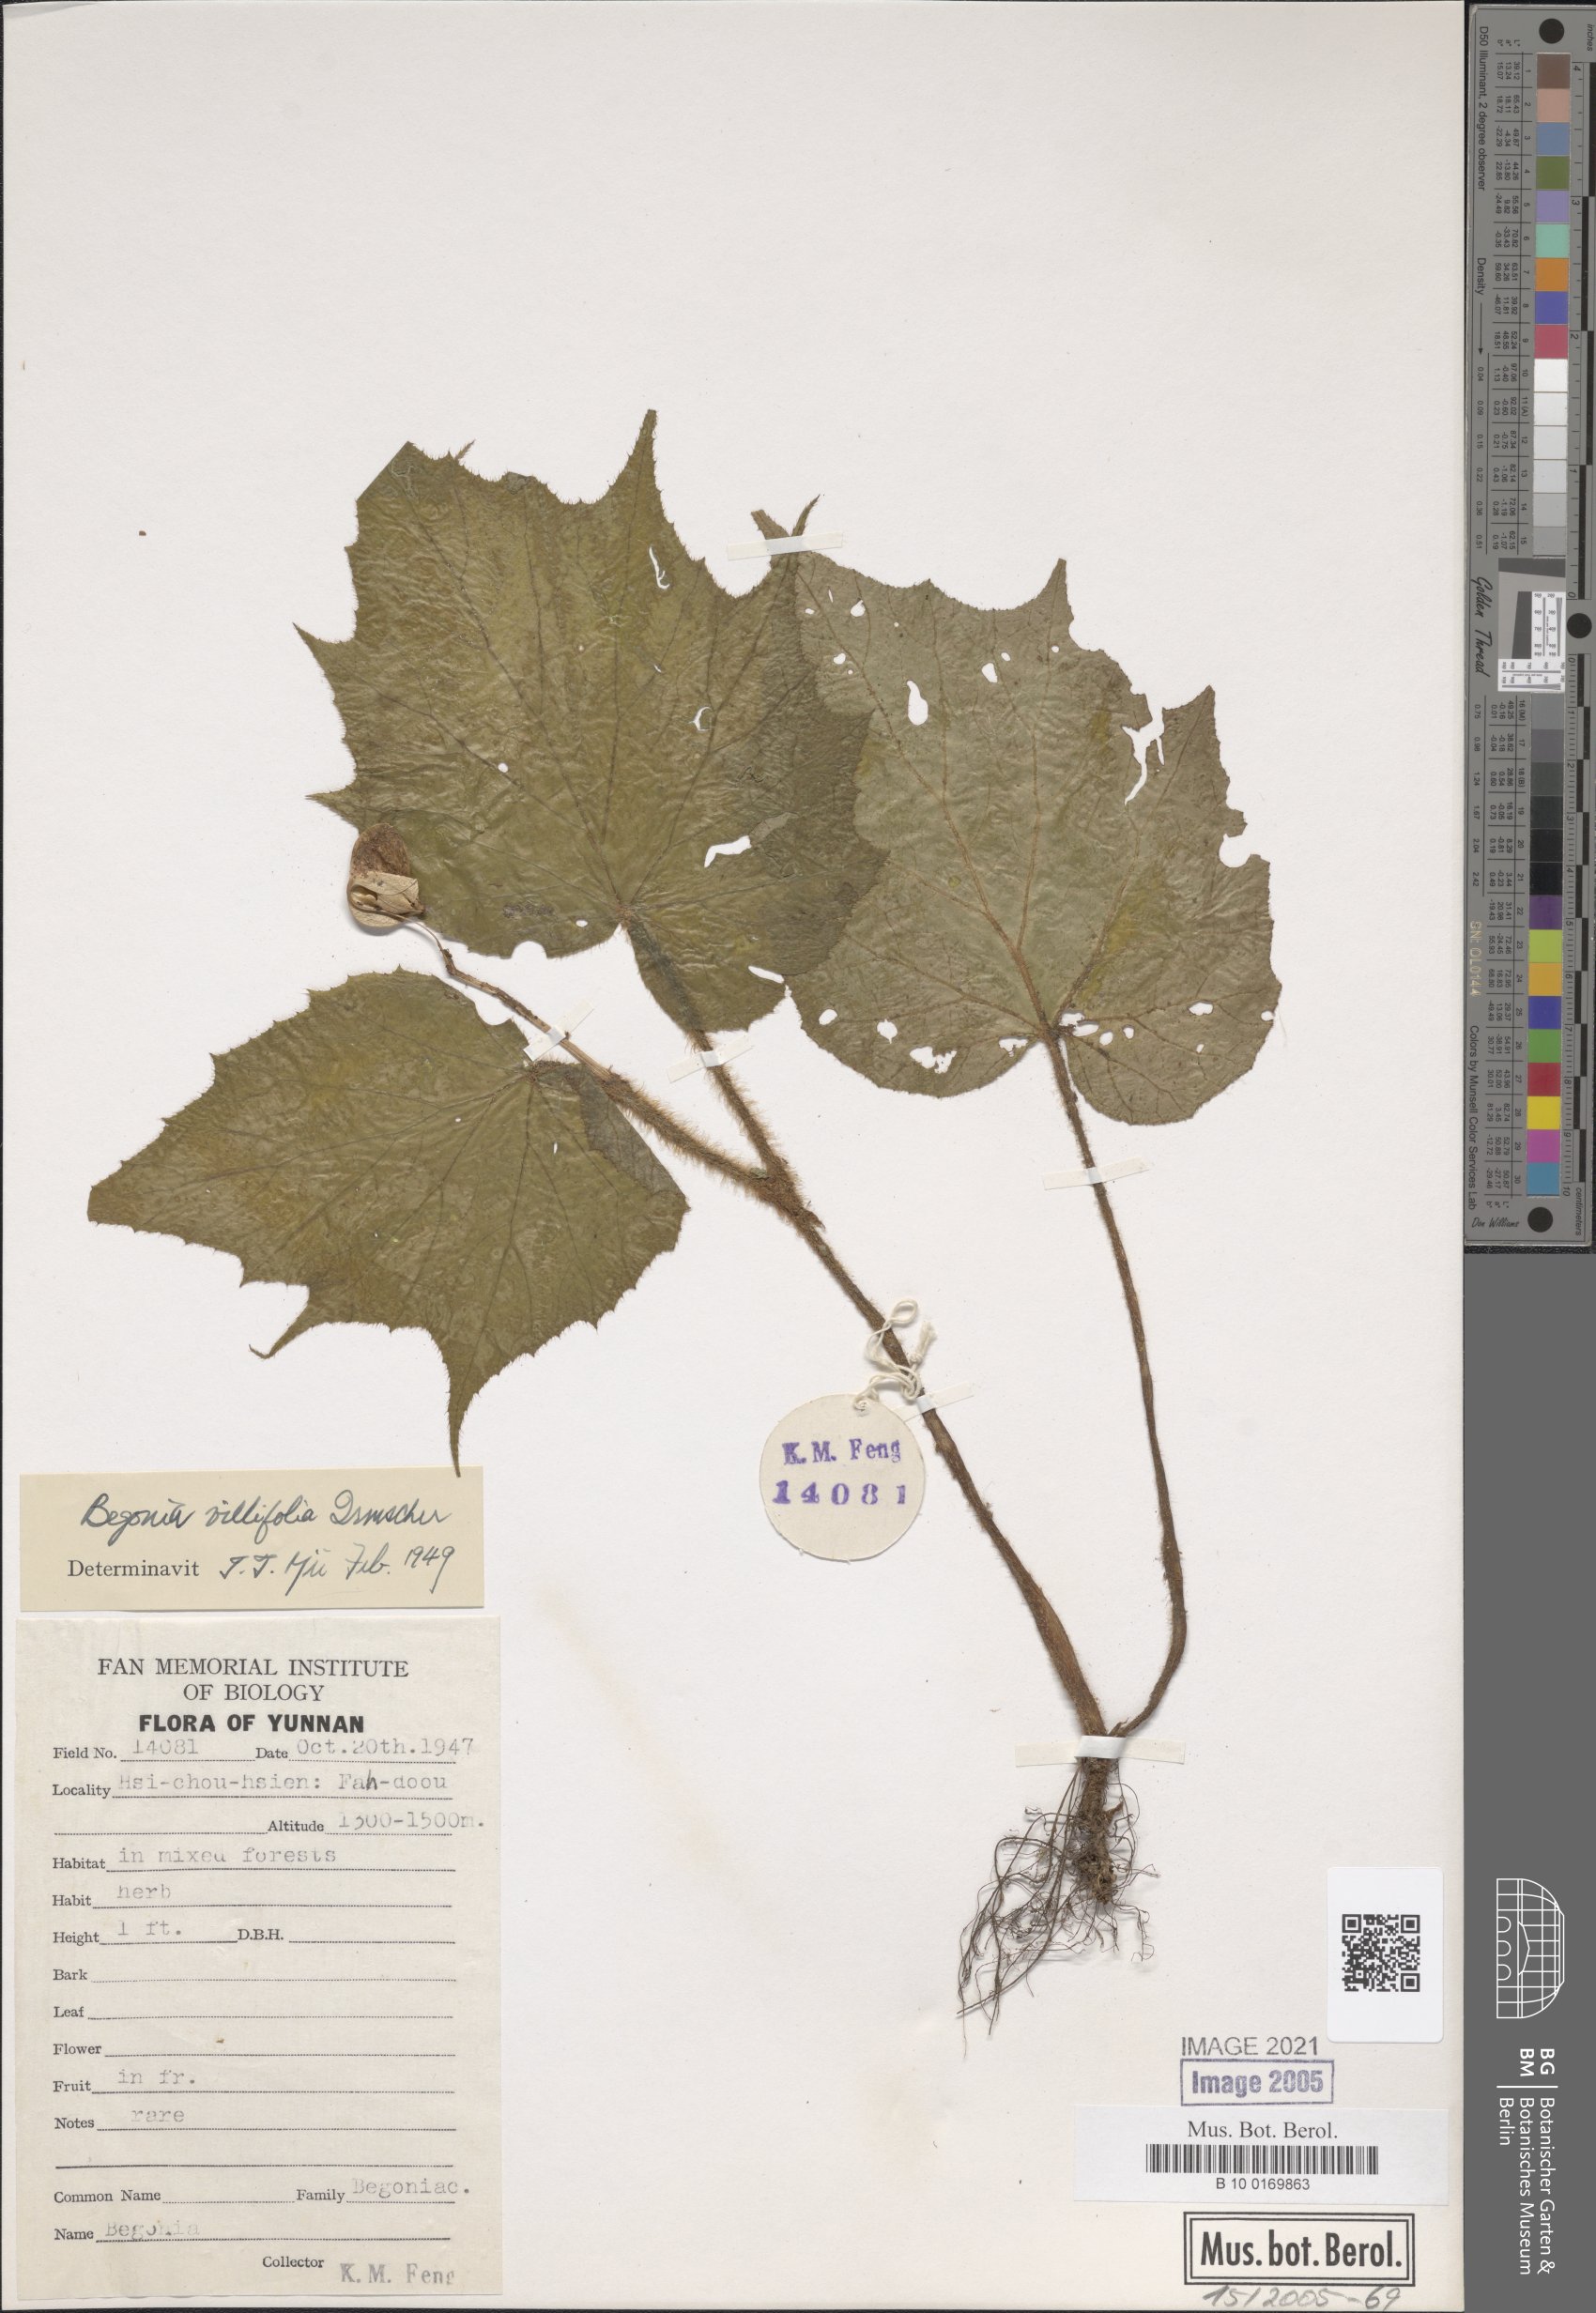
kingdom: Plantae
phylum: Tracheophyta
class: Magnoliopsida
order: Cucurbitales
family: Begoniaceae
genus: Begonia
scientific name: Begonia villifolia
